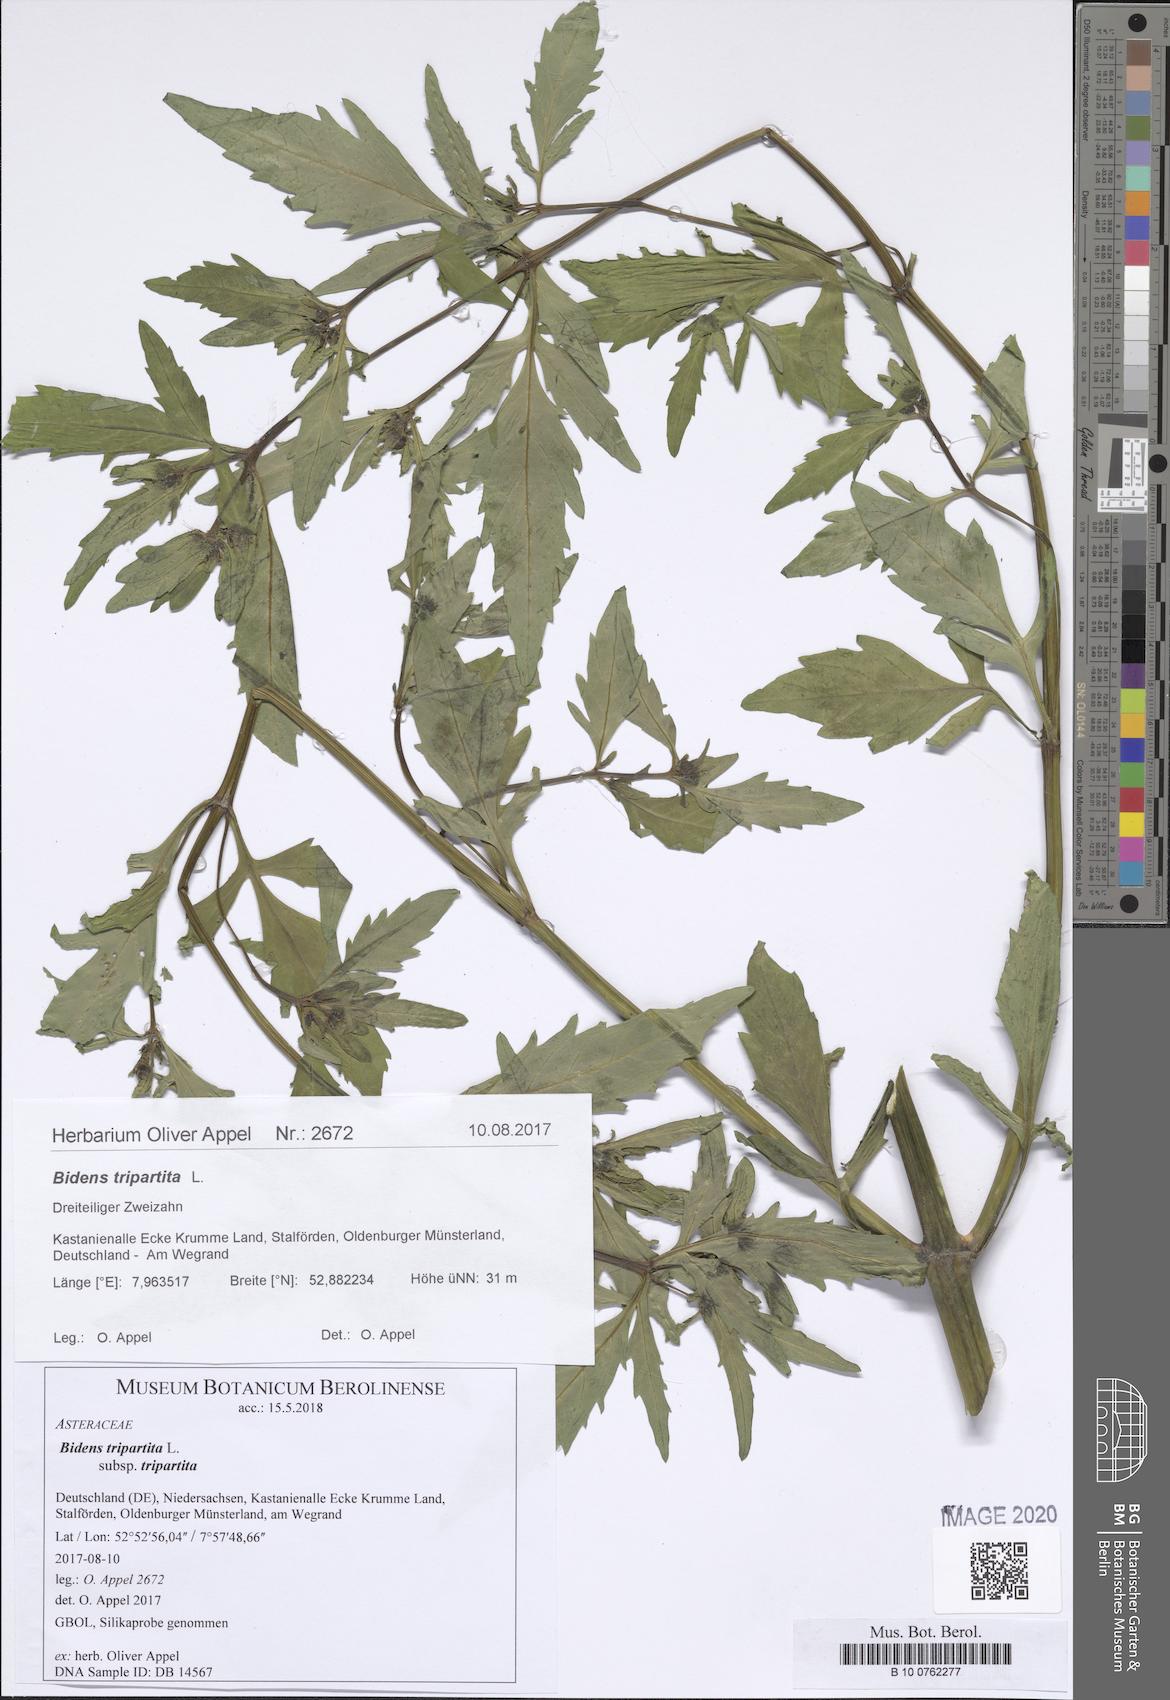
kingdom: Plantae
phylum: Tracheophyta
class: Lycopodiopsida
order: Isoetales
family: Isoetaceae
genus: Isoetes
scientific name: Isoetes duriei
